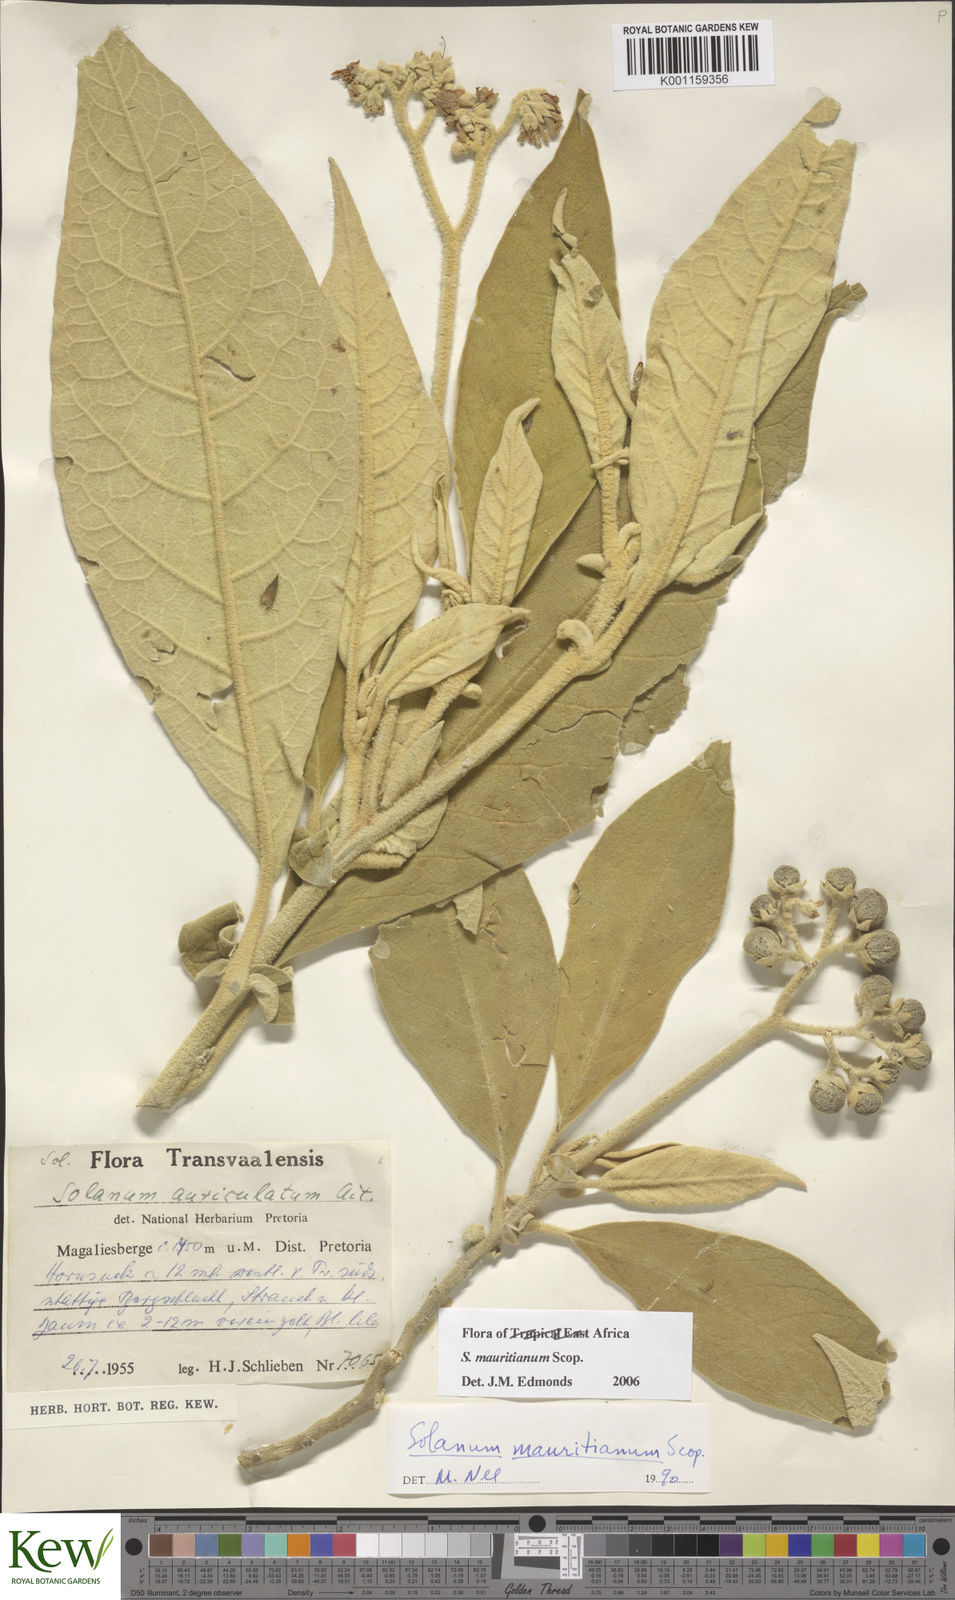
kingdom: Plantae
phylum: Tracheophyta
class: Magnoliopsida
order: Solanales
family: Solanaceae
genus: Solanum
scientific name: Solanum mauritianum
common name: Earleaf nightshade
